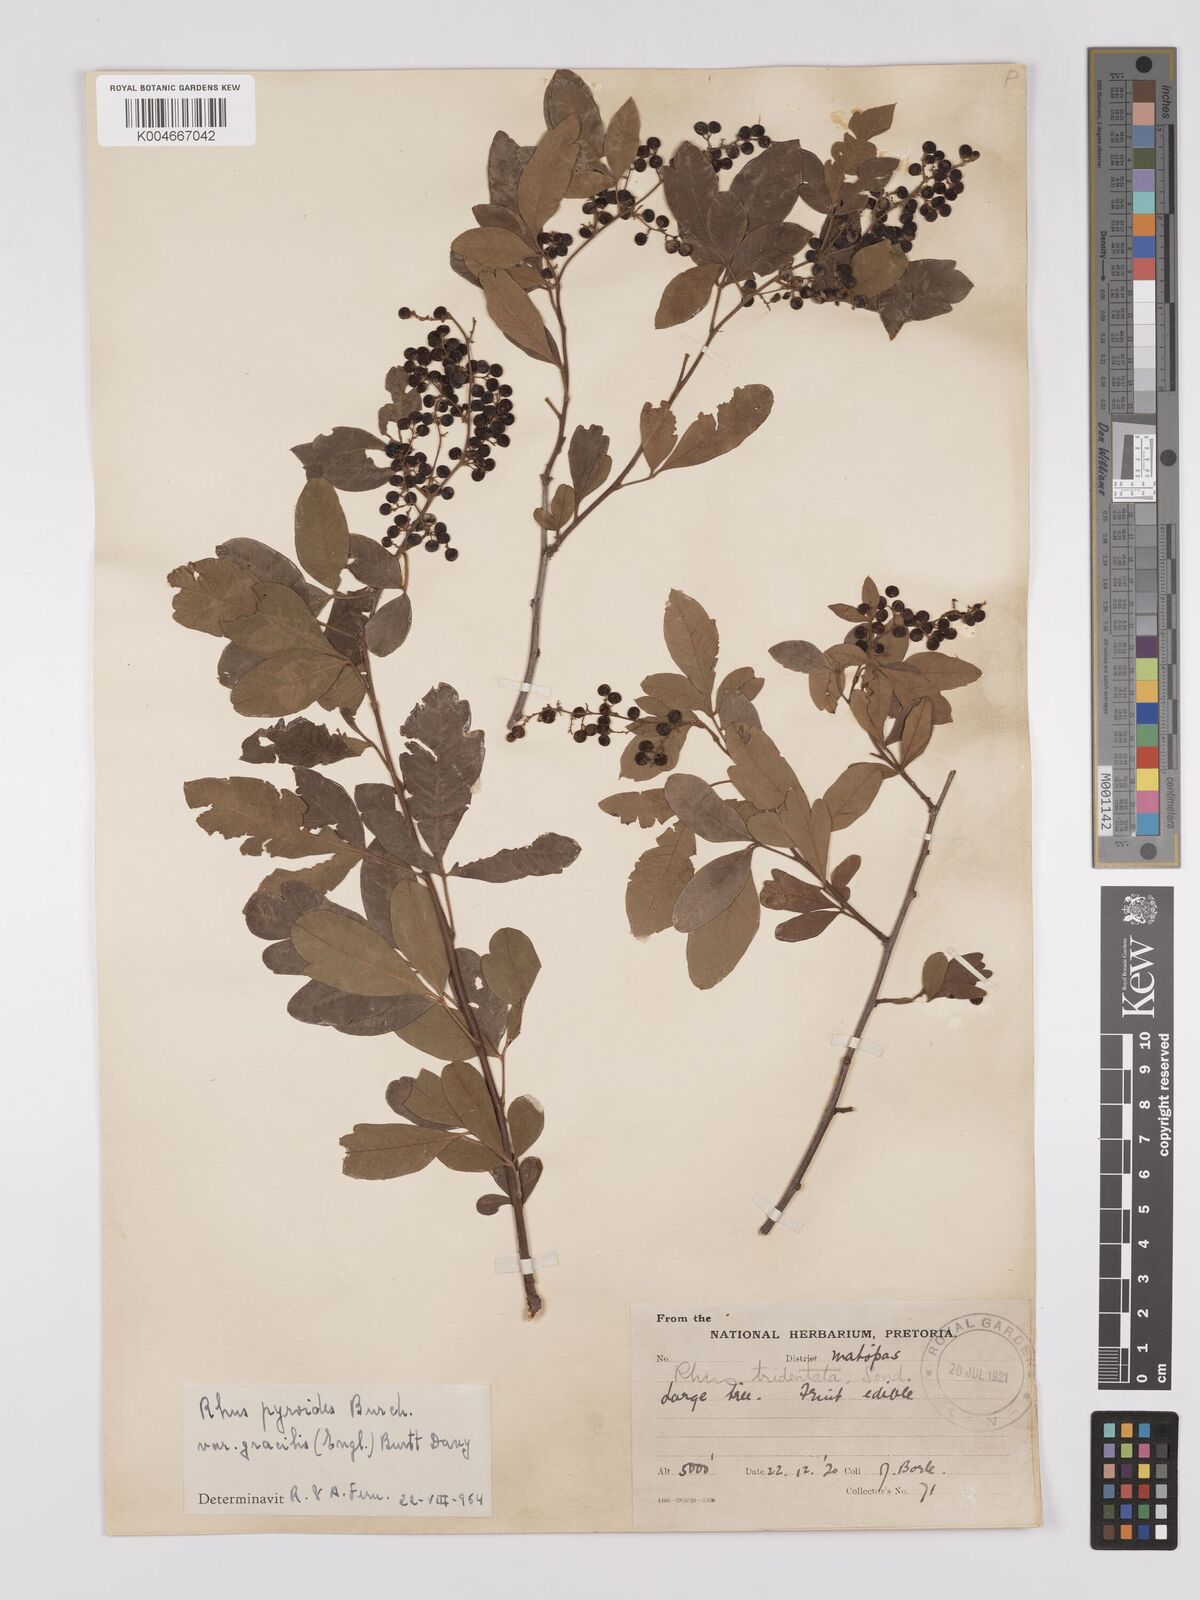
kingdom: Plantae
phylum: Tracheophyta
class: Magnoliopsida
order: Sapindales
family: Anacardiaceae
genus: Rhus
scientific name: Rhus
